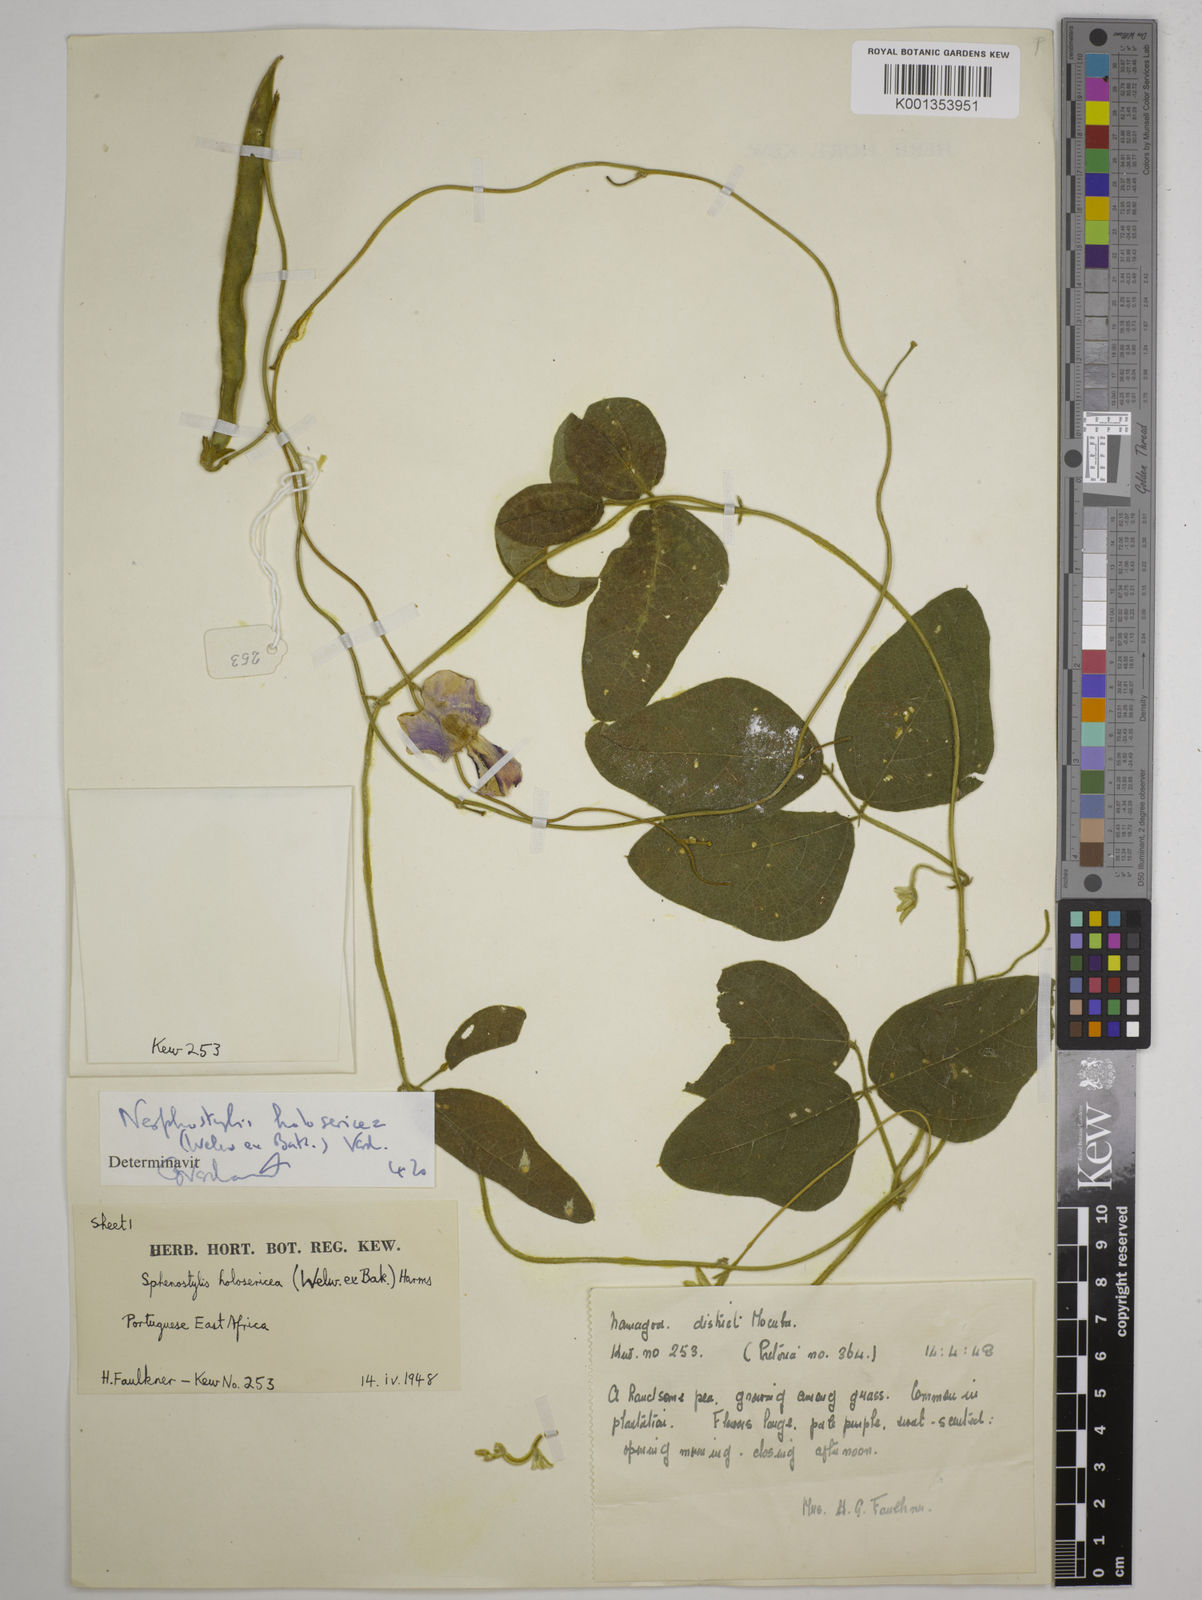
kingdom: Plantae
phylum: Tracheophyta
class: Magnoliopsida
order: Fabales
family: Fabaceae
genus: Nesphostylis
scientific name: Nesphostylis holosericea
